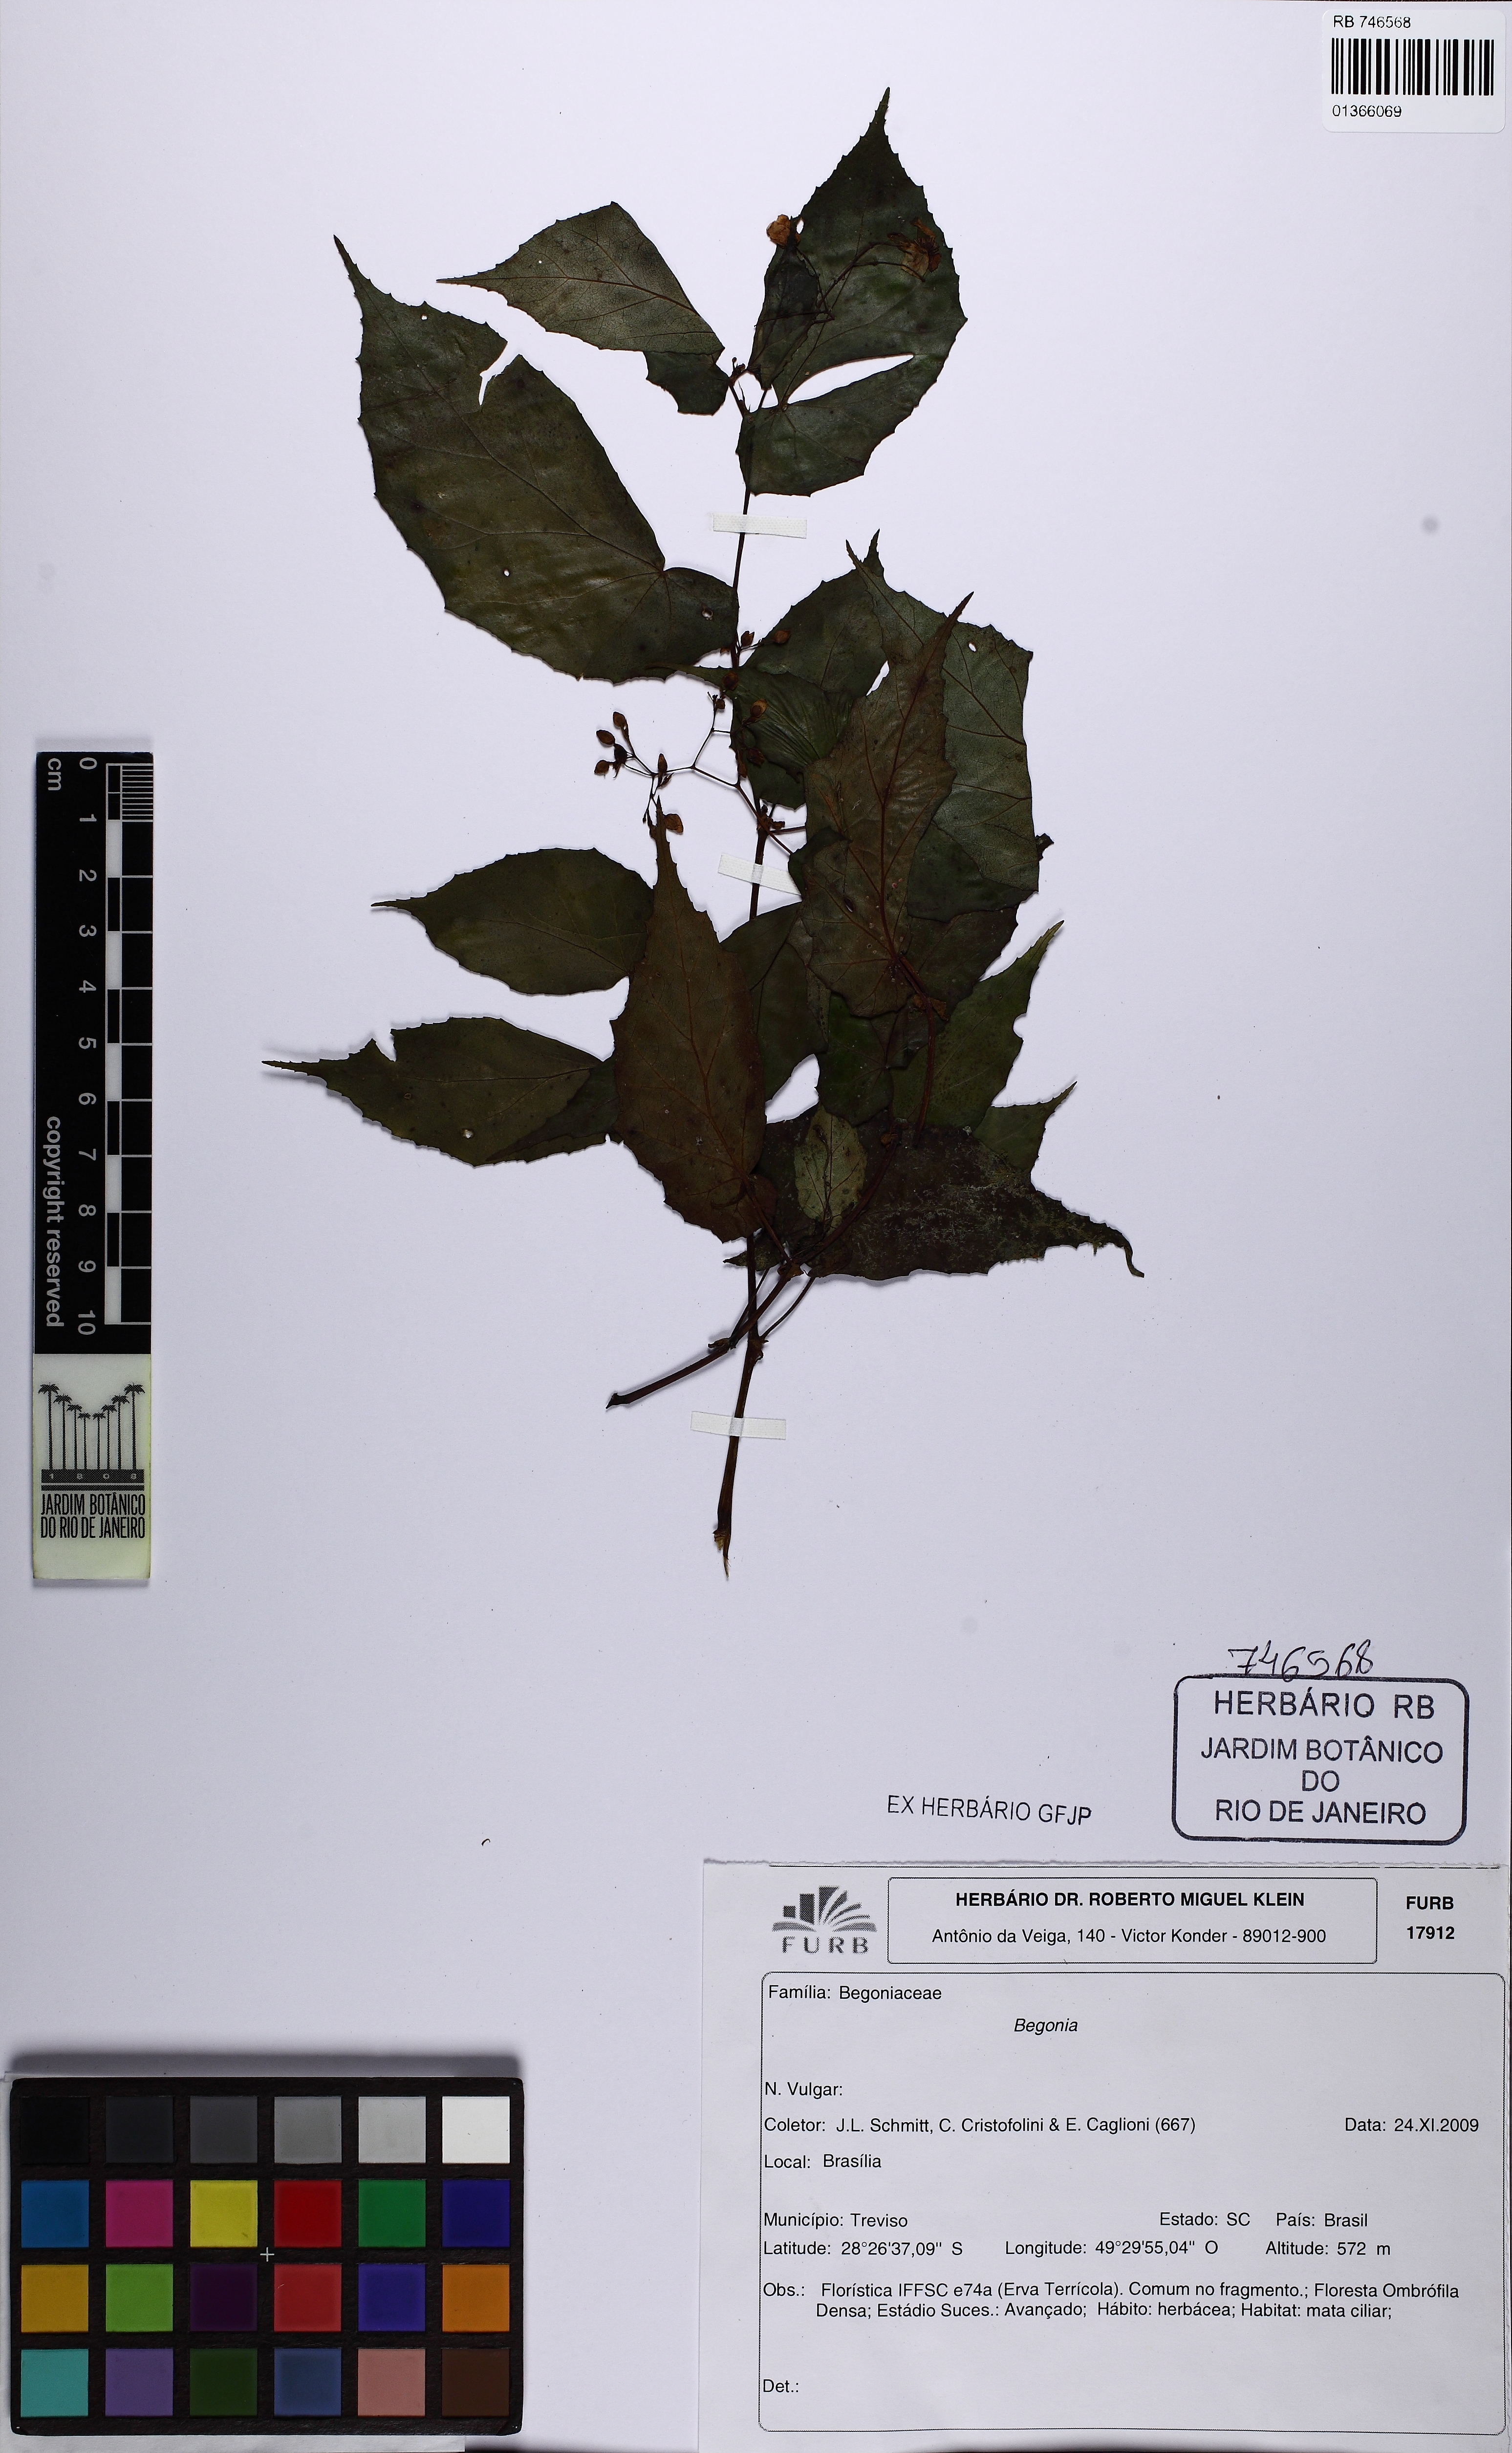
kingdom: Plantae
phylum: Tracheophyta
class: Magnoliopsida
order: Cucurbitales
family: Begoniaceae
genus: Begonia
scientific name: Begonia catharinensis
